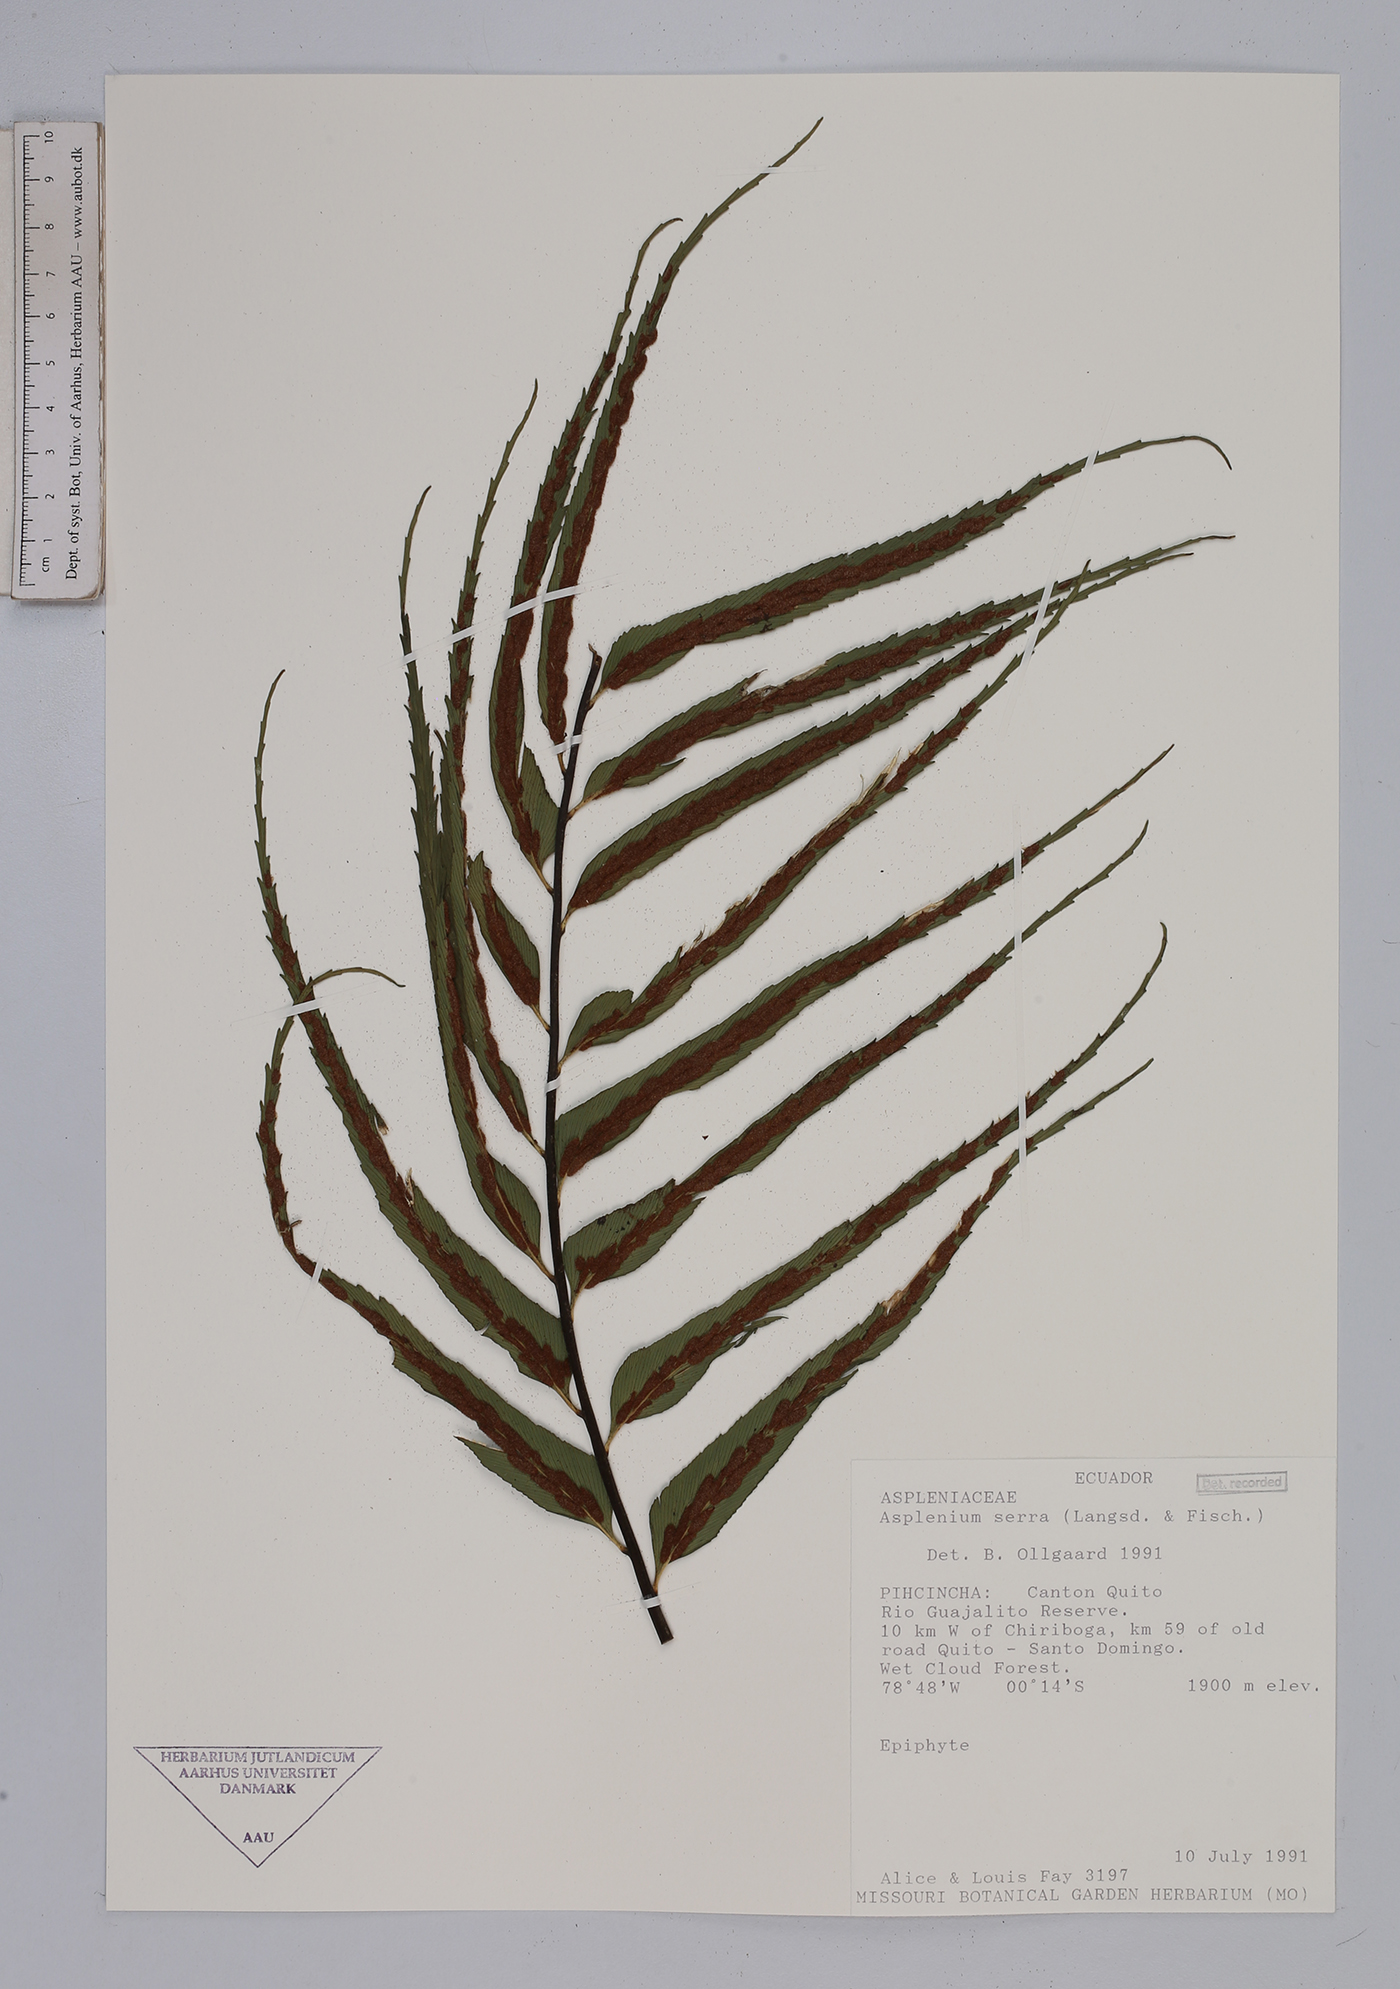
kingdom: Plantae
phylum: Tracheophyta
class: Polypodiopsida
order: Polypodiales
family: Aspleniaceae
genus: Asplenium
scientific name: Asplenium serra
